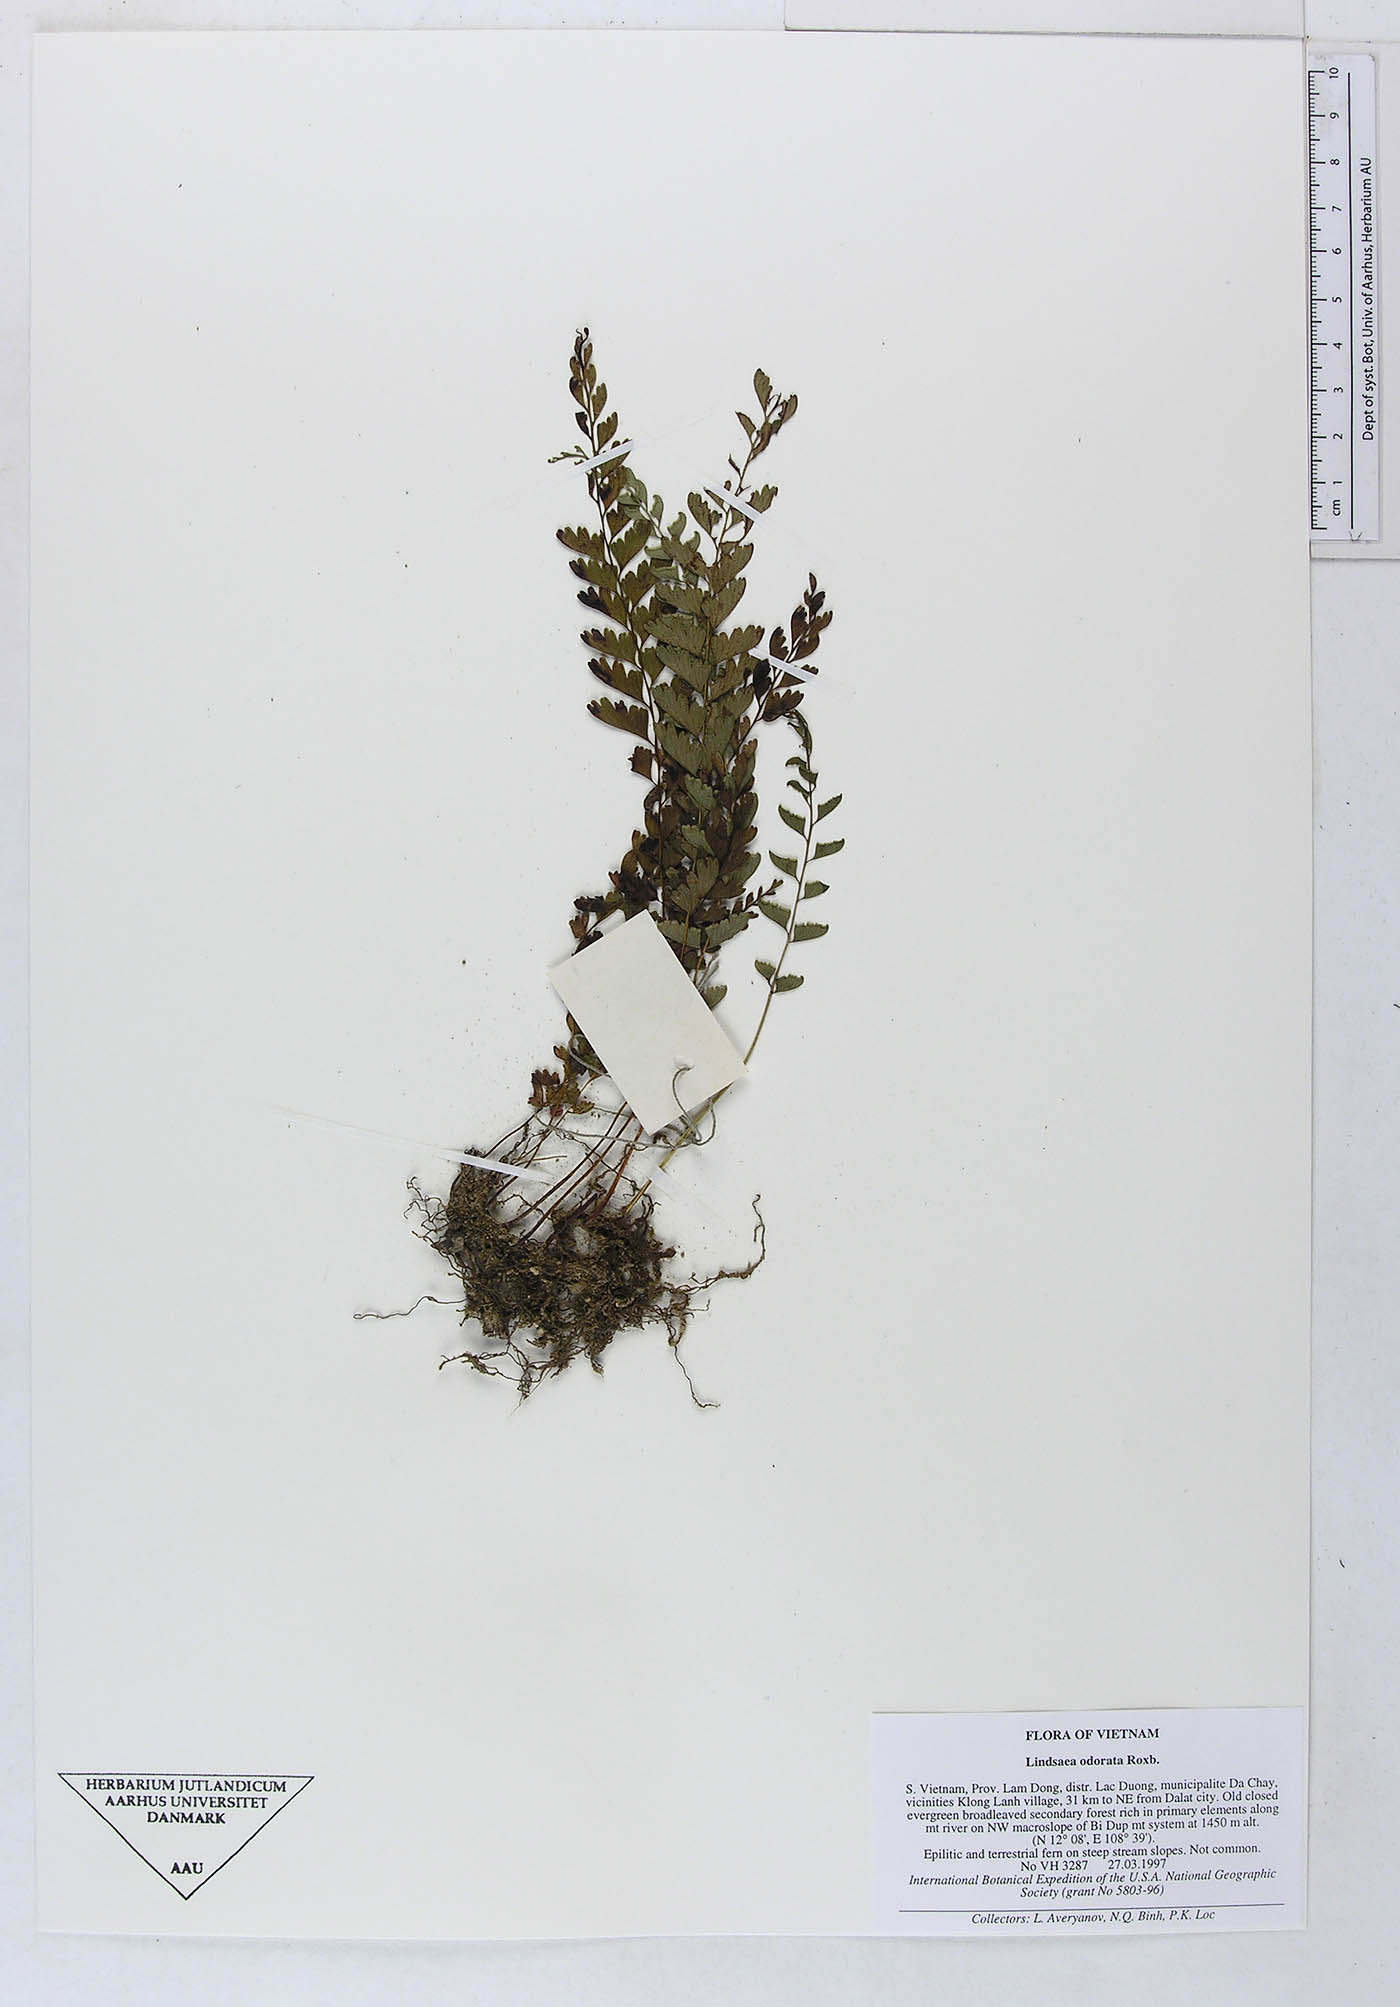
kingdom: Plantae
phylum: Tracheophyta
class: Polypodiopsida
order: Polypodiales
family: Lindsaeaceae
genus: Osmolindsaea
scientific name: Osmolindsaea odorata
